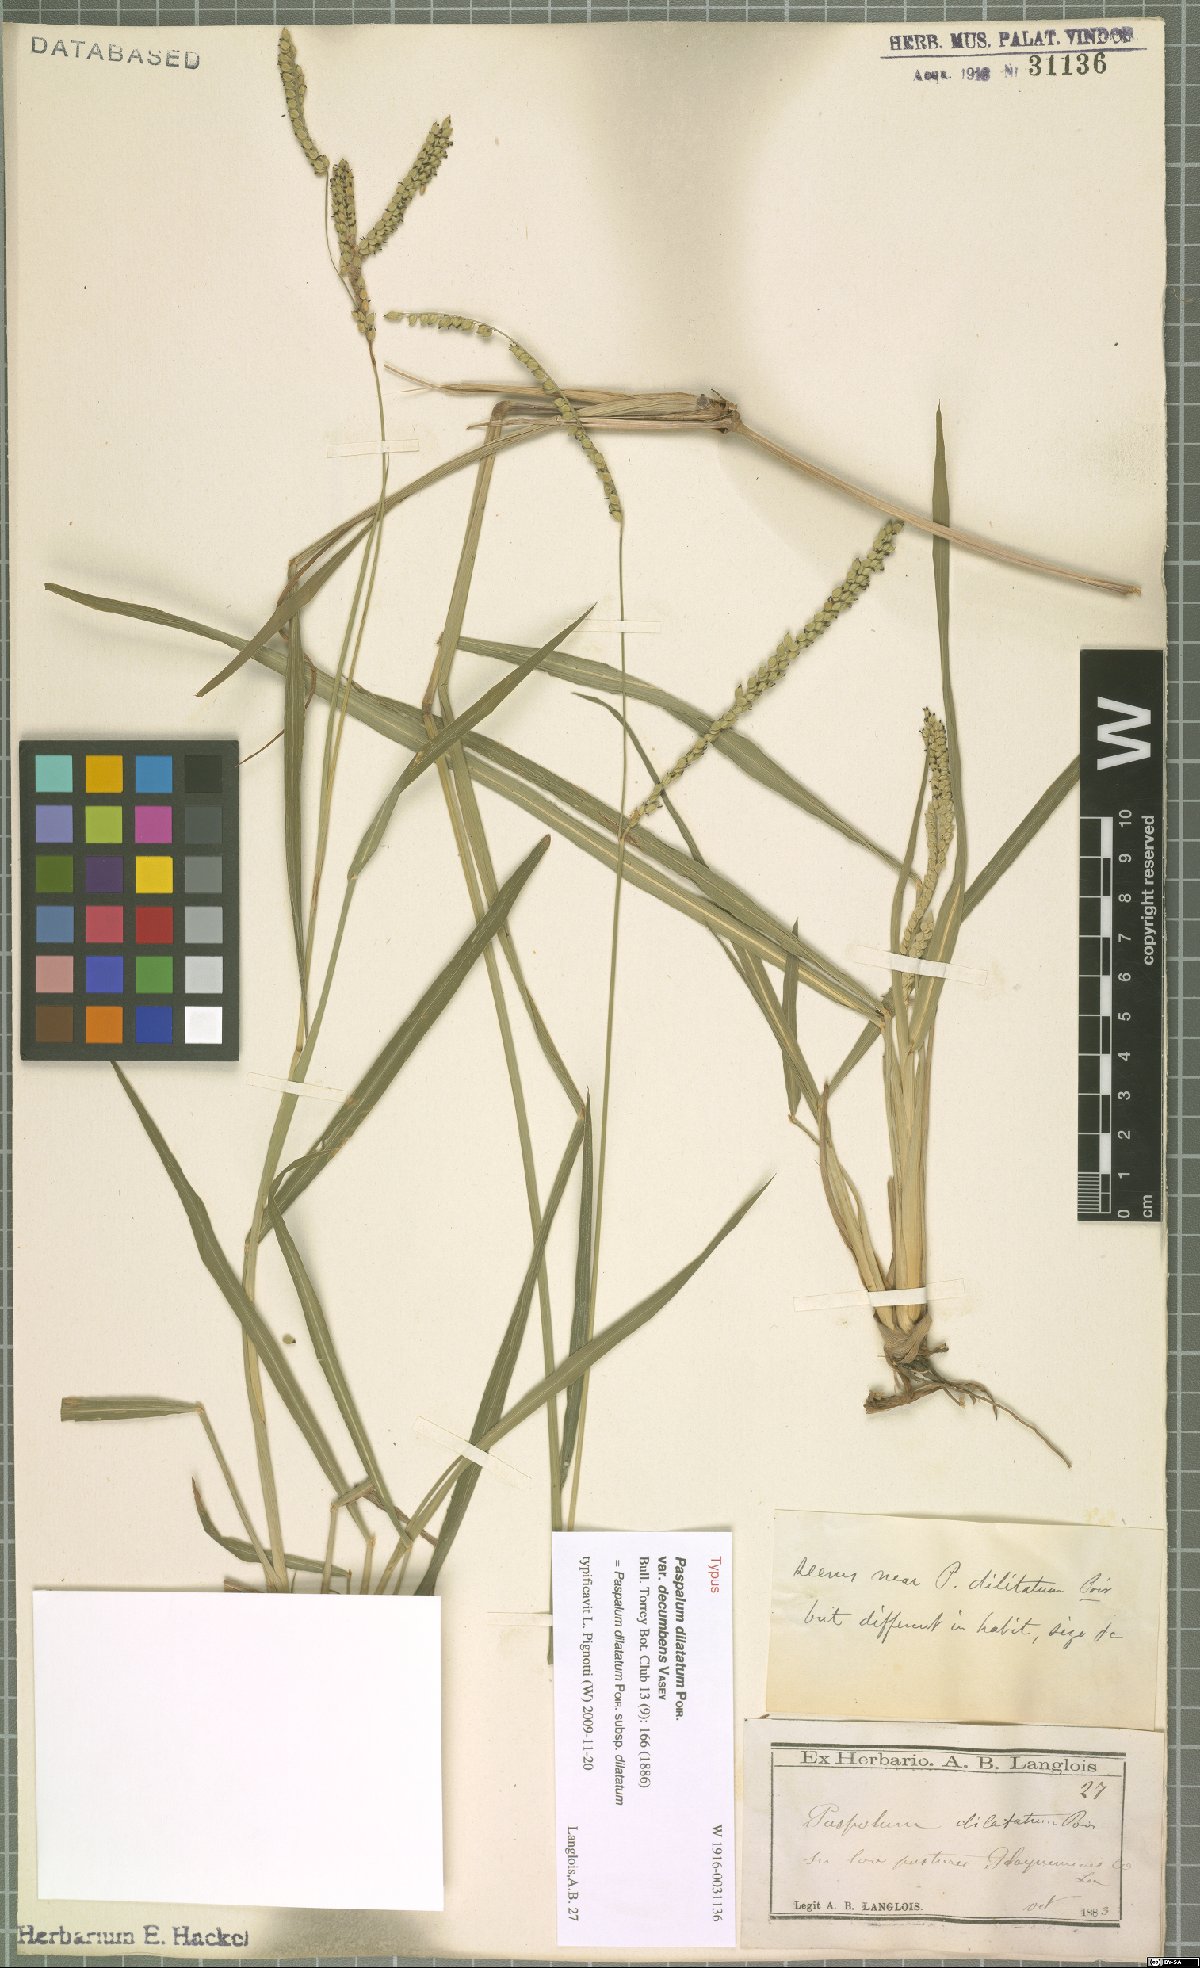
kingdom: Plantae
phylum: Tracheophyta
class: Liliopsida
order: Poales
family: Poaceae
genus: Paspalum
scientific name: Paspalum dilatatum
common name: Dallisgrass
